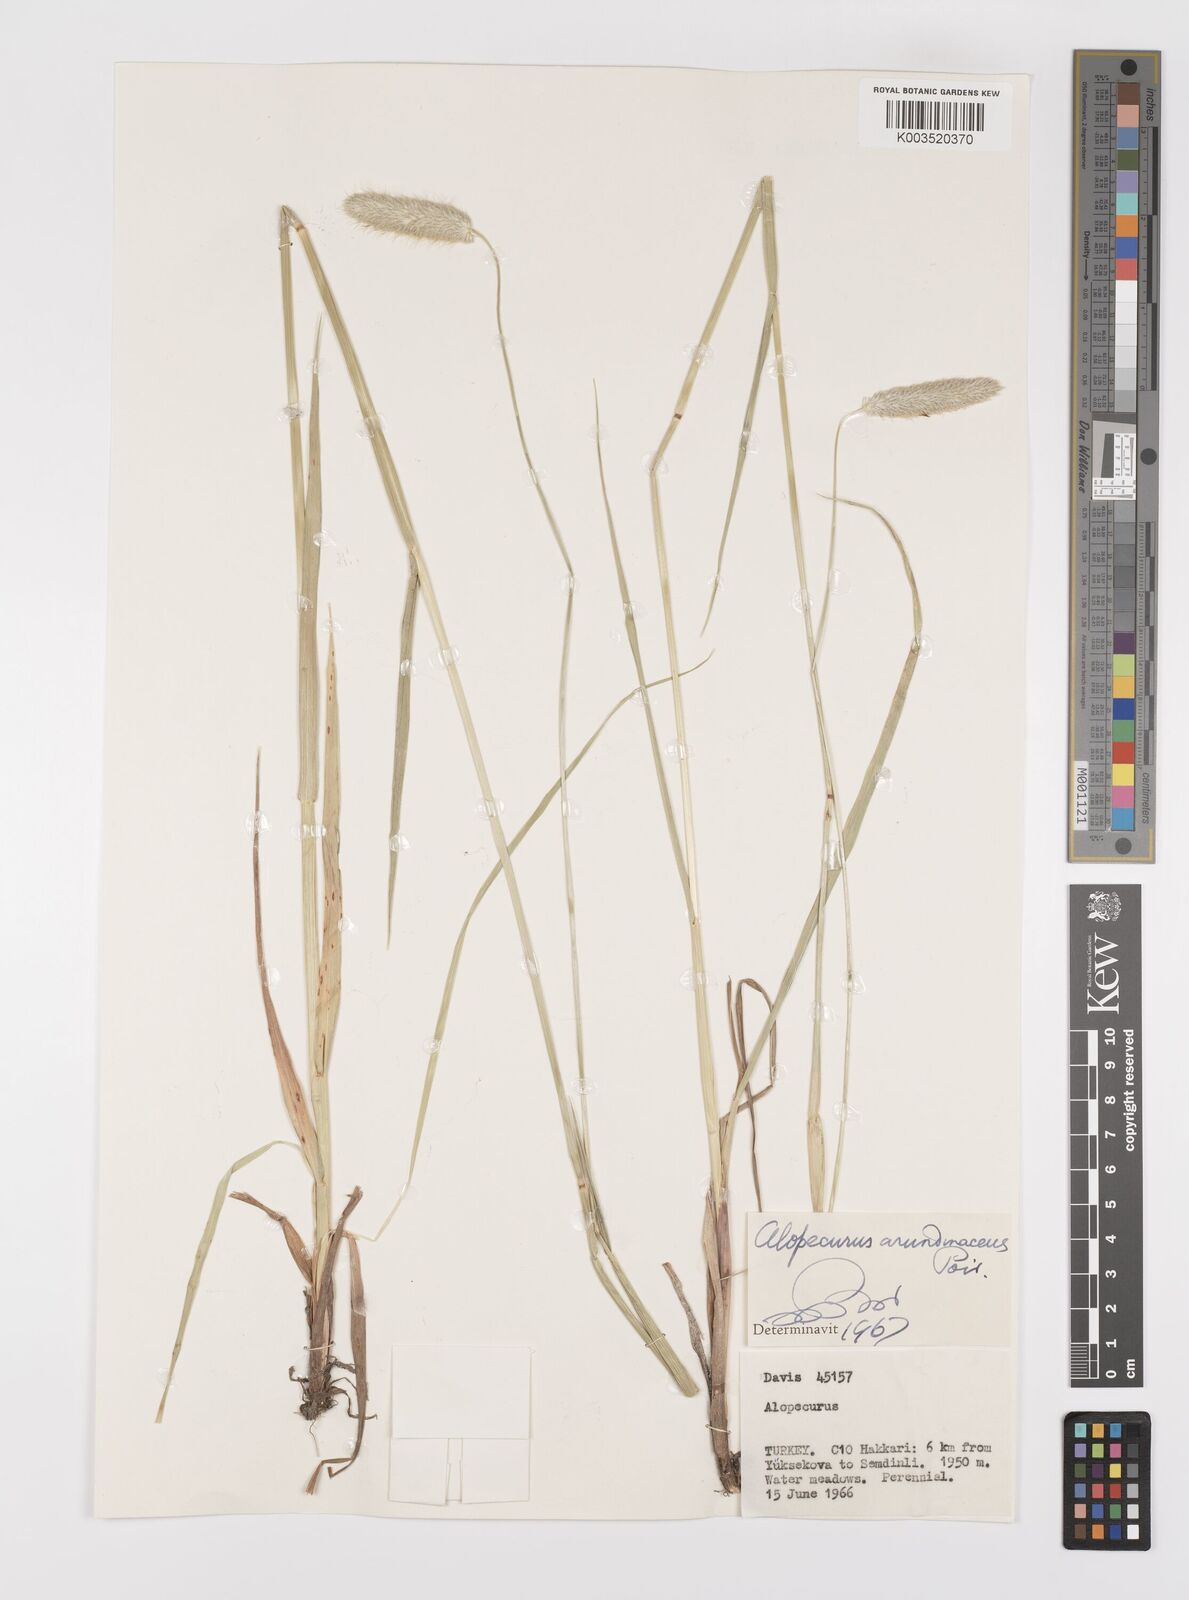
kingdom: Plantae
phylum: Tracheophyta
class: Liliopsida
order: Poales
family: Poaceae
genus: Alopecurus
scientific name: Alopecurus arundinaceus
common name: Creeping meadow foxtail
